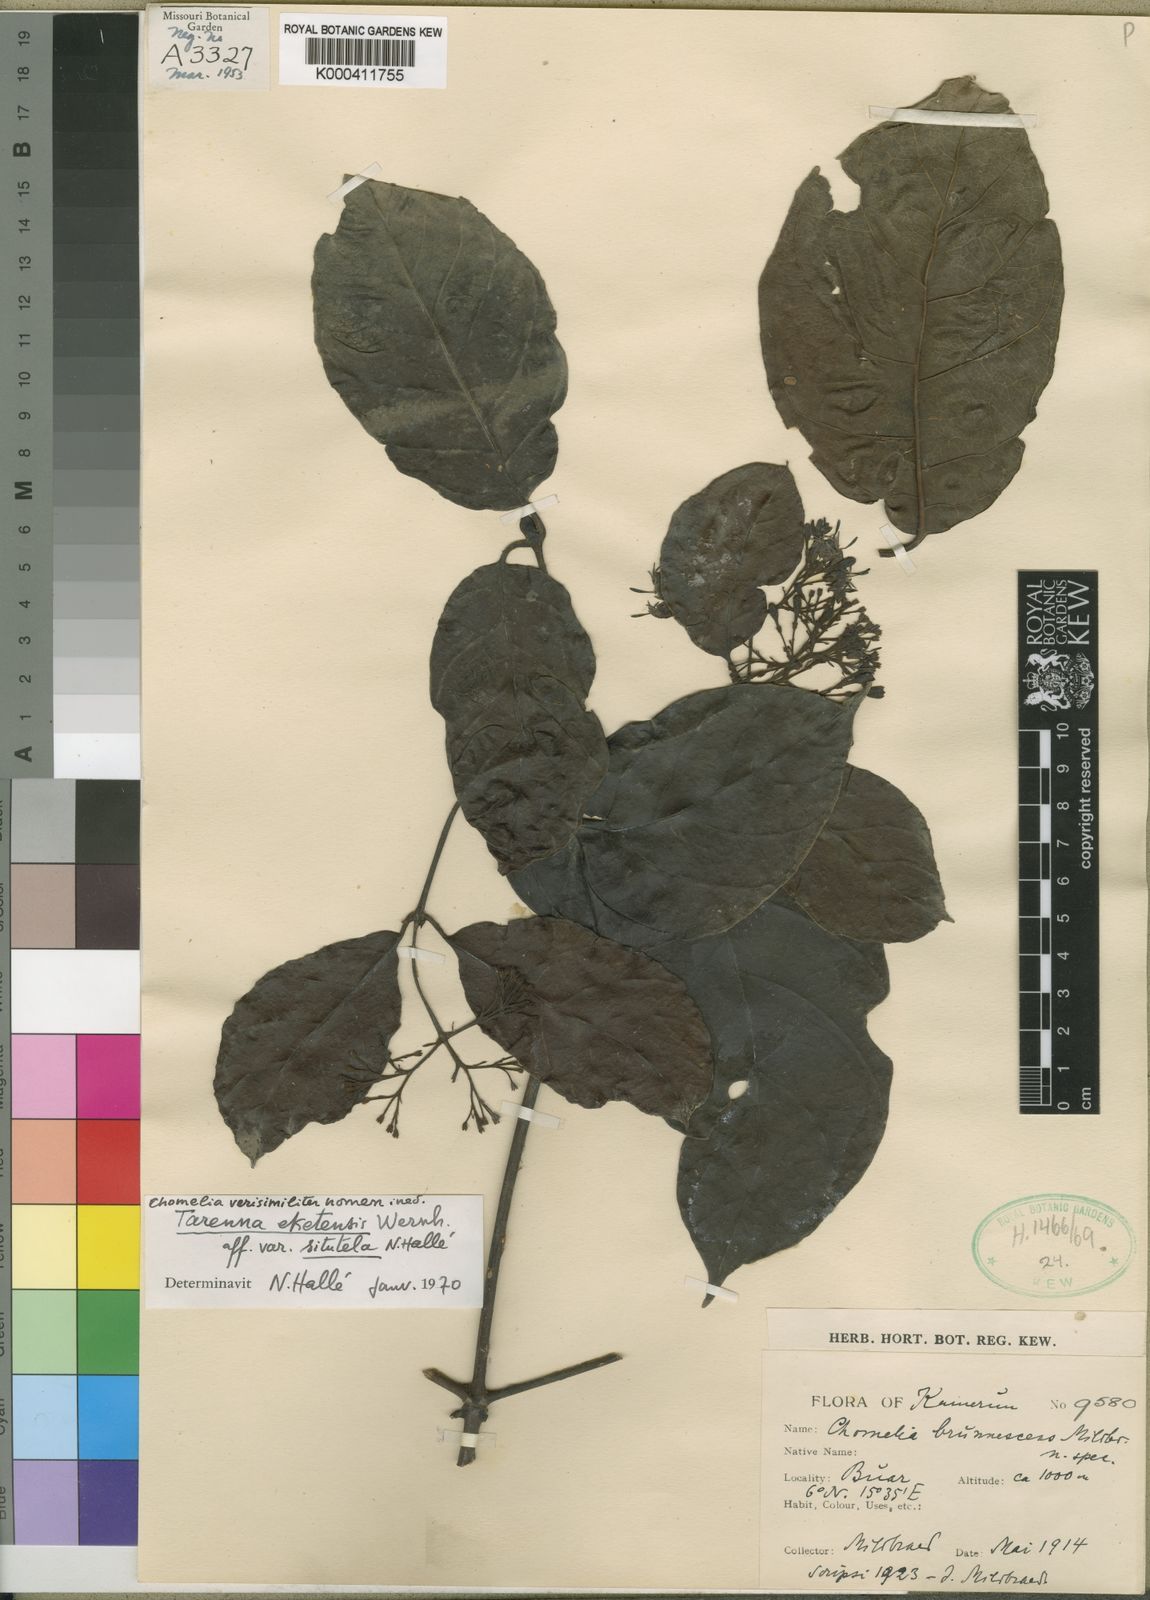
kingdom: Plantae
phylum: Tracheophyta
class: Magnoliopsida
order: Gentianales
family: Rubiaceae
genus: Tarenna
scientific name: Tarenna eketensis
